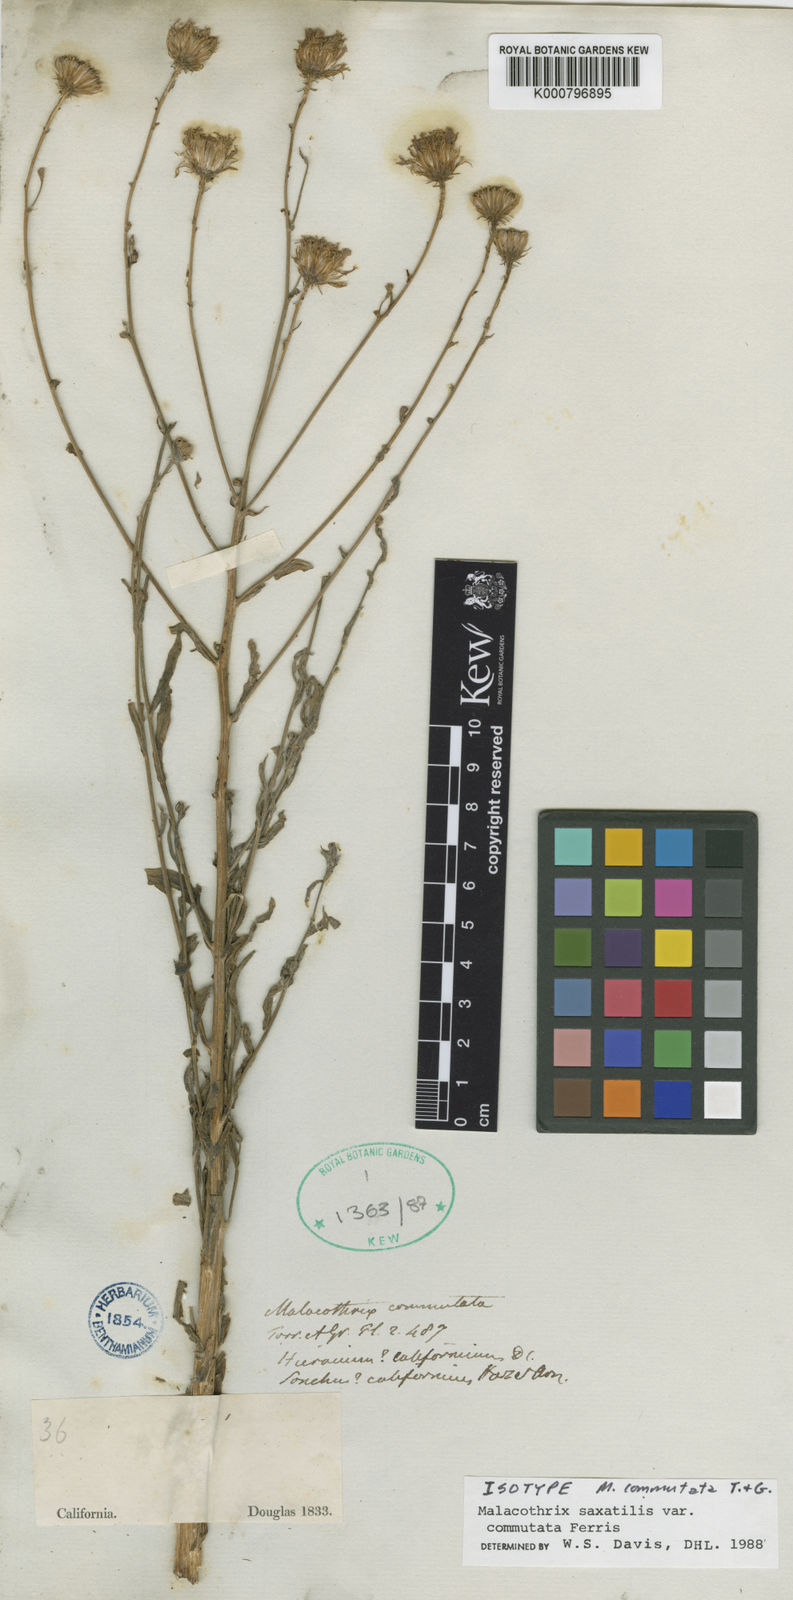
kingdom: Plantae
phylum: Tracheophyta
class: Magnoliopsida
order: Asterales
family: Asteraceae
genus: Malacothrix
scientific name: Malacothrix saxatilis
